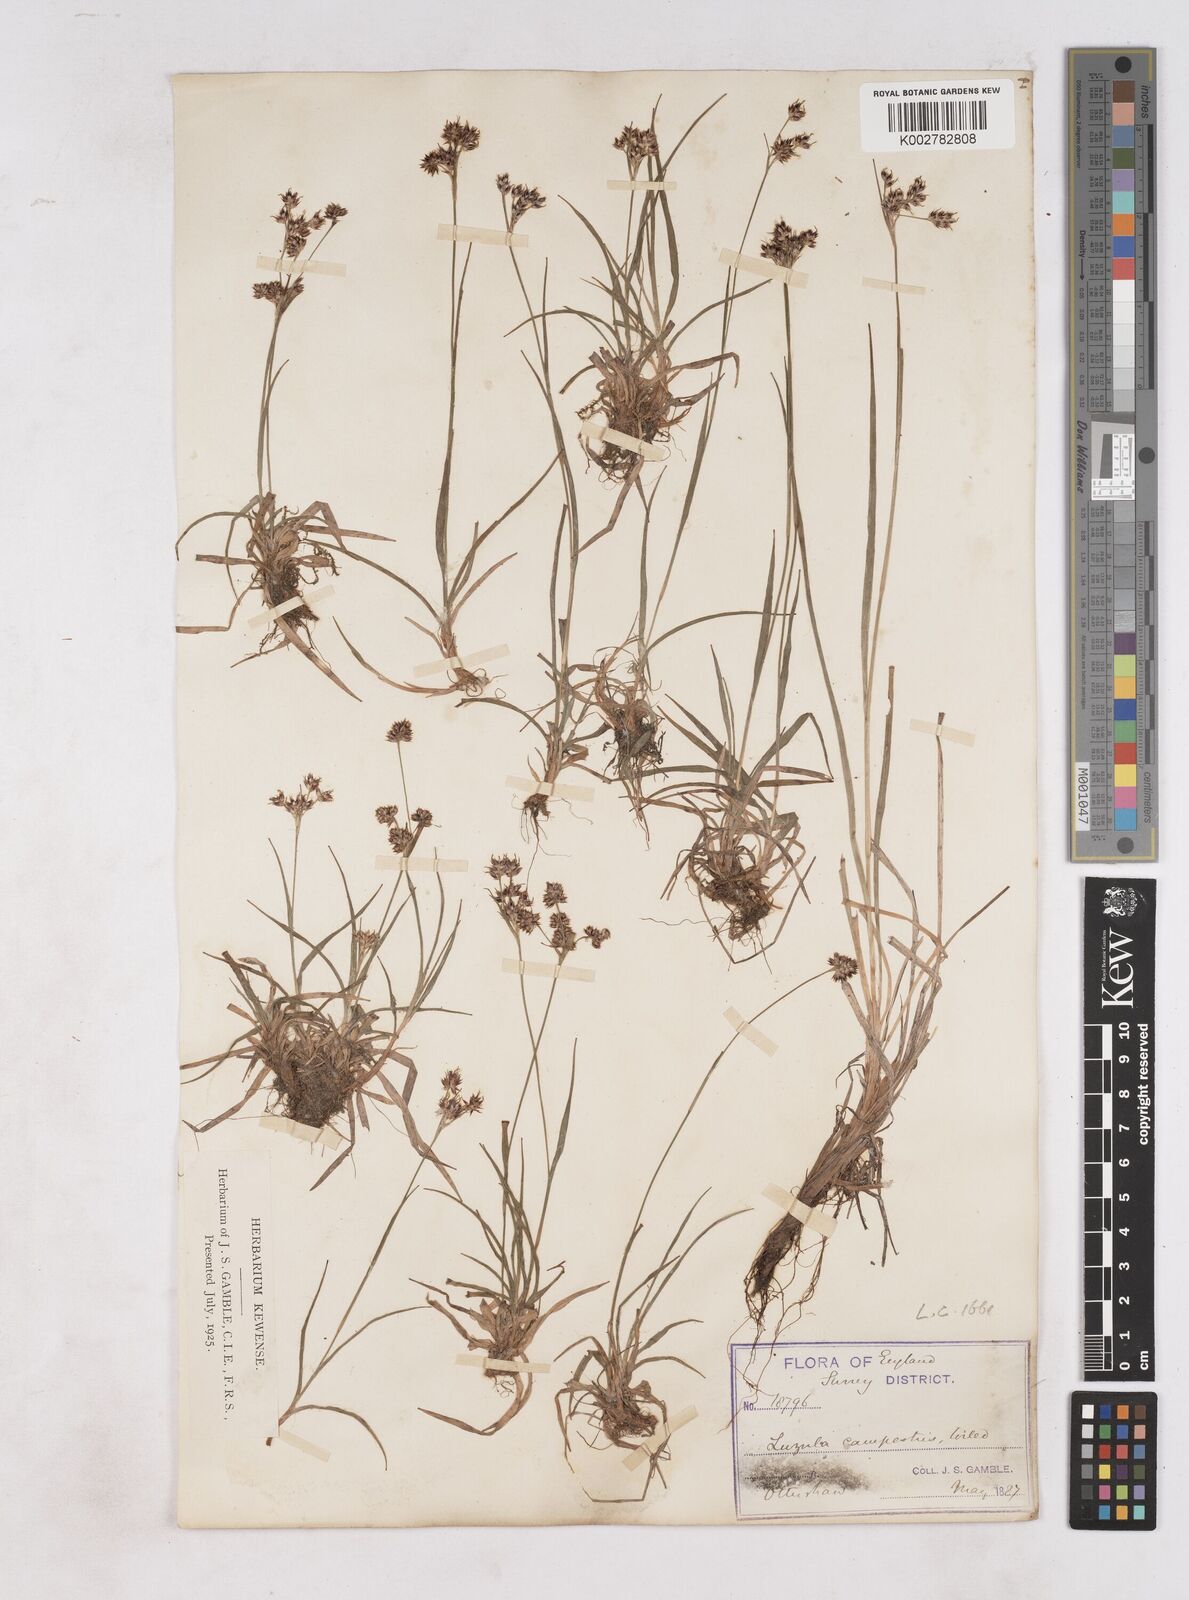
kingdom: Plantae
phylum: Tracheophyta
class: Liliopsida
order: Poales
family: Juncaceae
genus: Luzula
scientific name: Luzula campestris
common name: Field wood-rush
